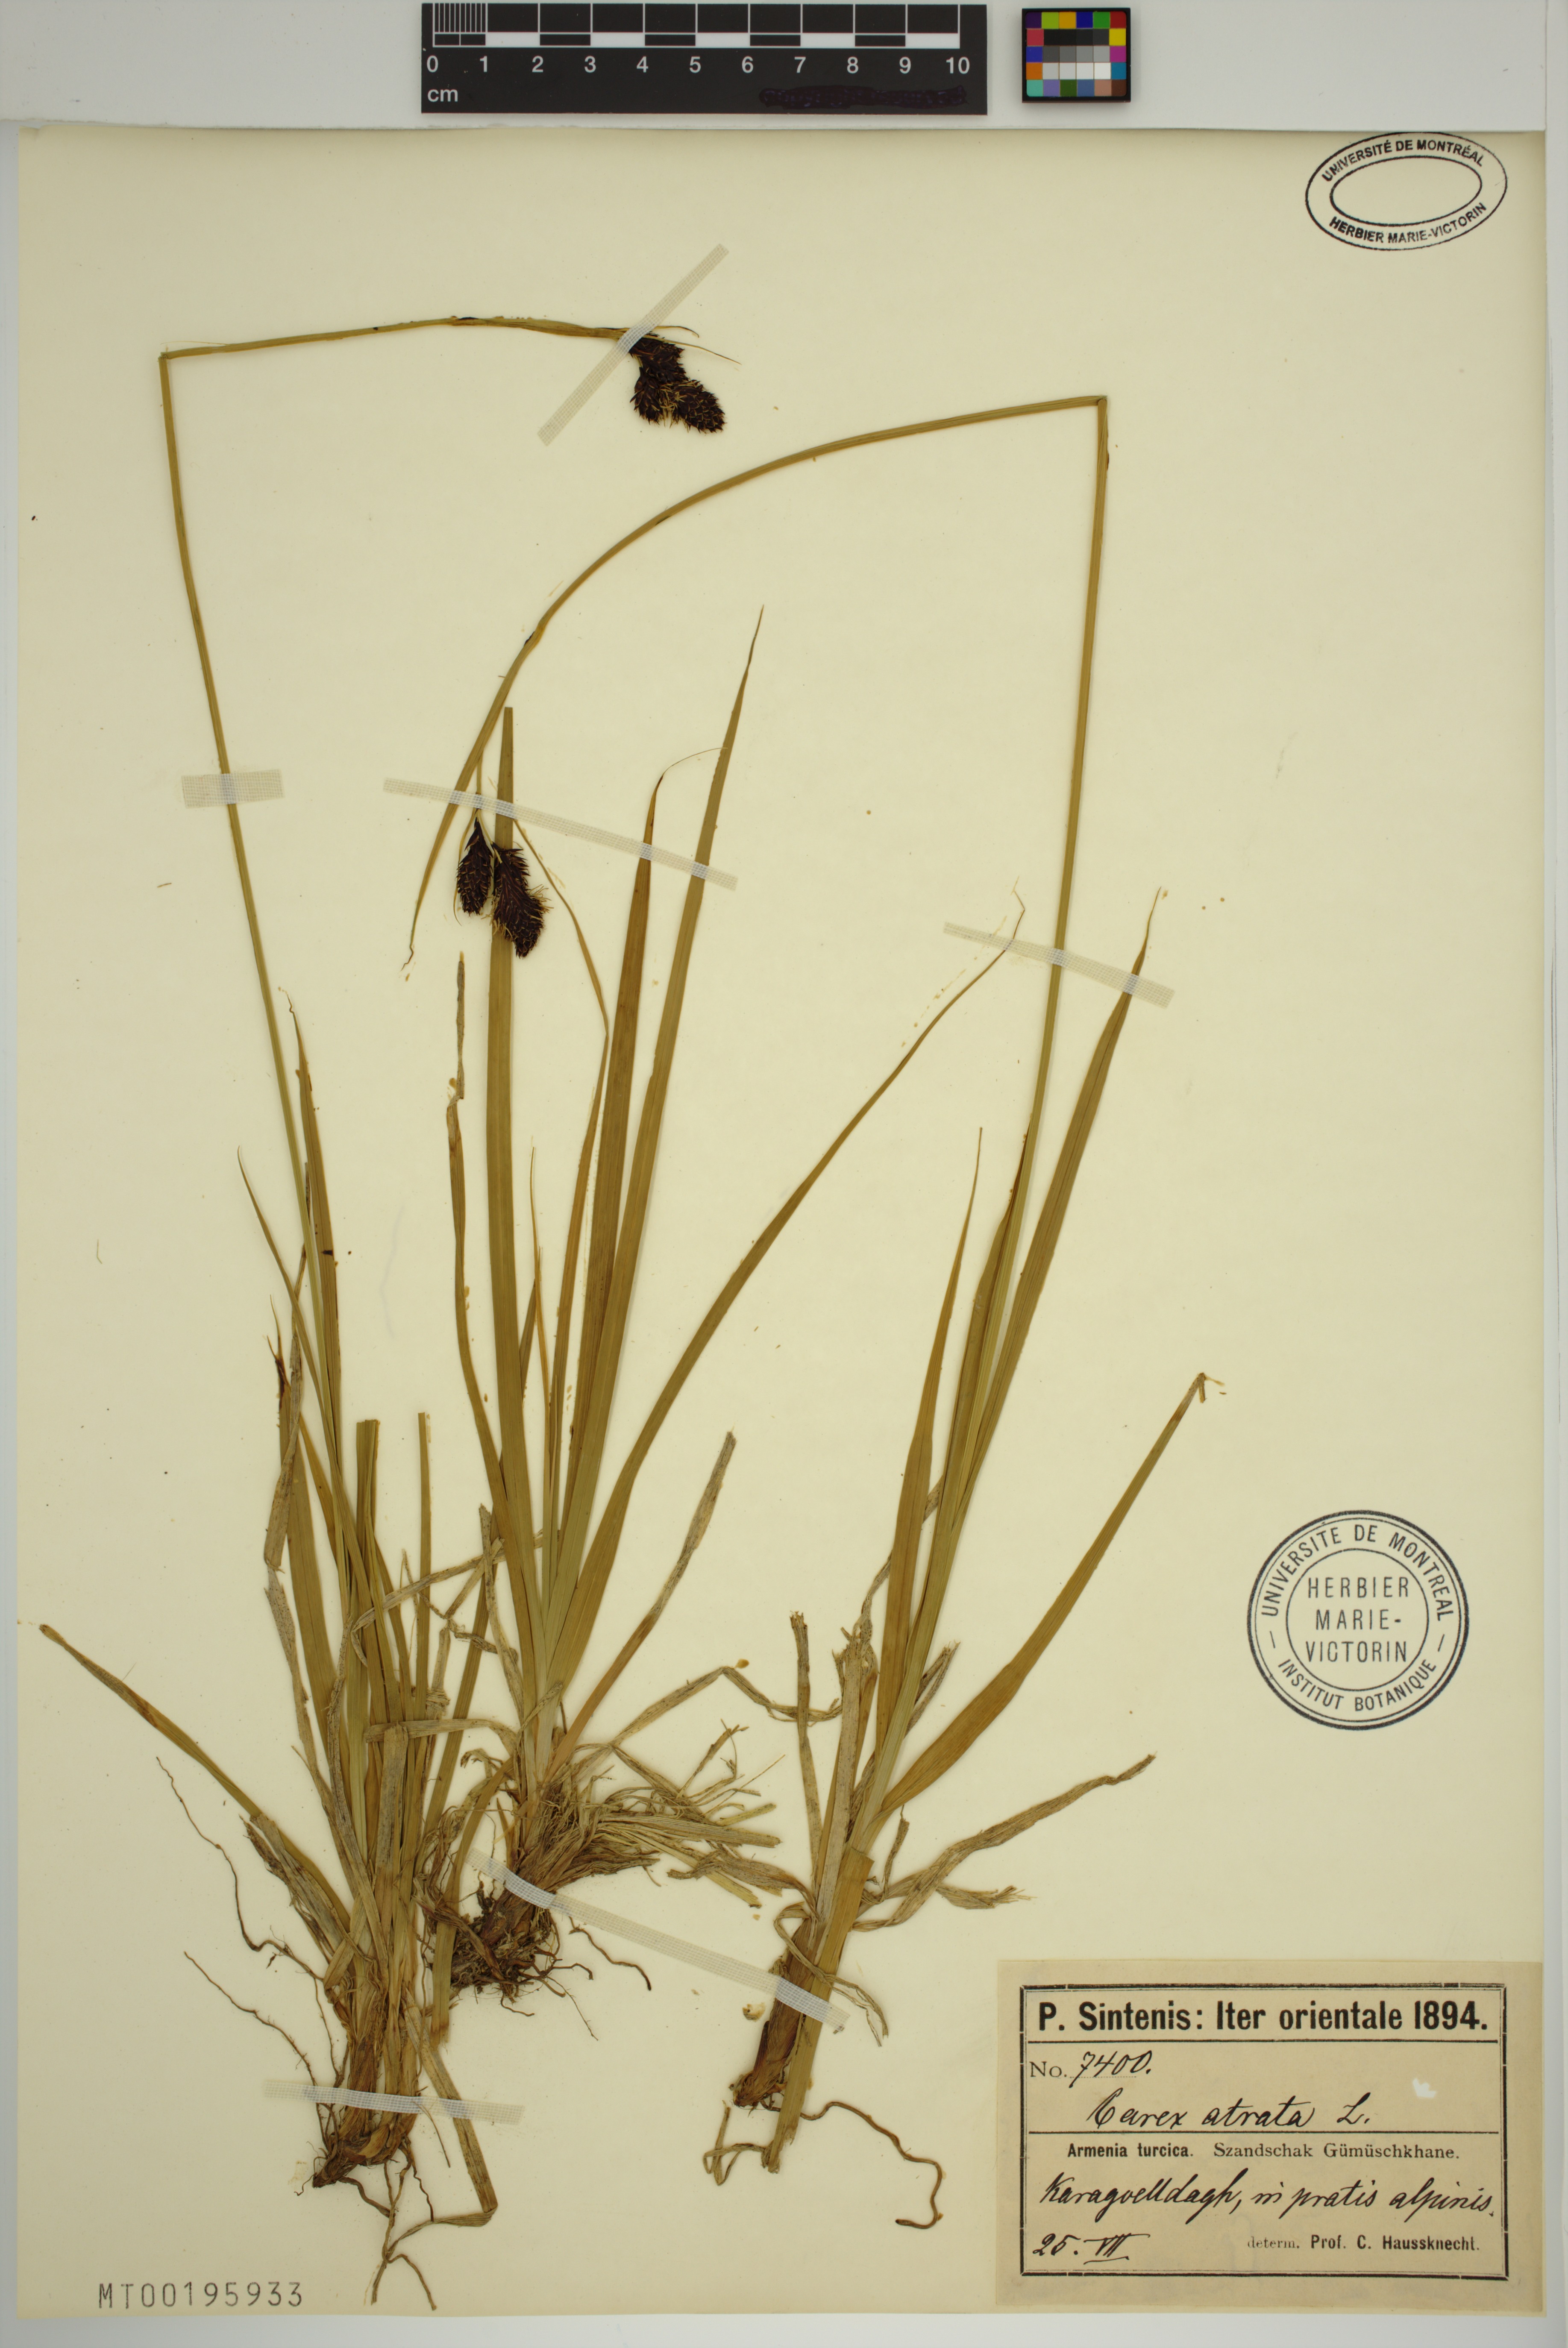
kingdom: Plantae
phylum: Tracheophyta
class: Liliopsida
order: Poales
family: Cyperaceae
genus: Carex
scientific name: Carex atrata
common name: Black alpine sedge
